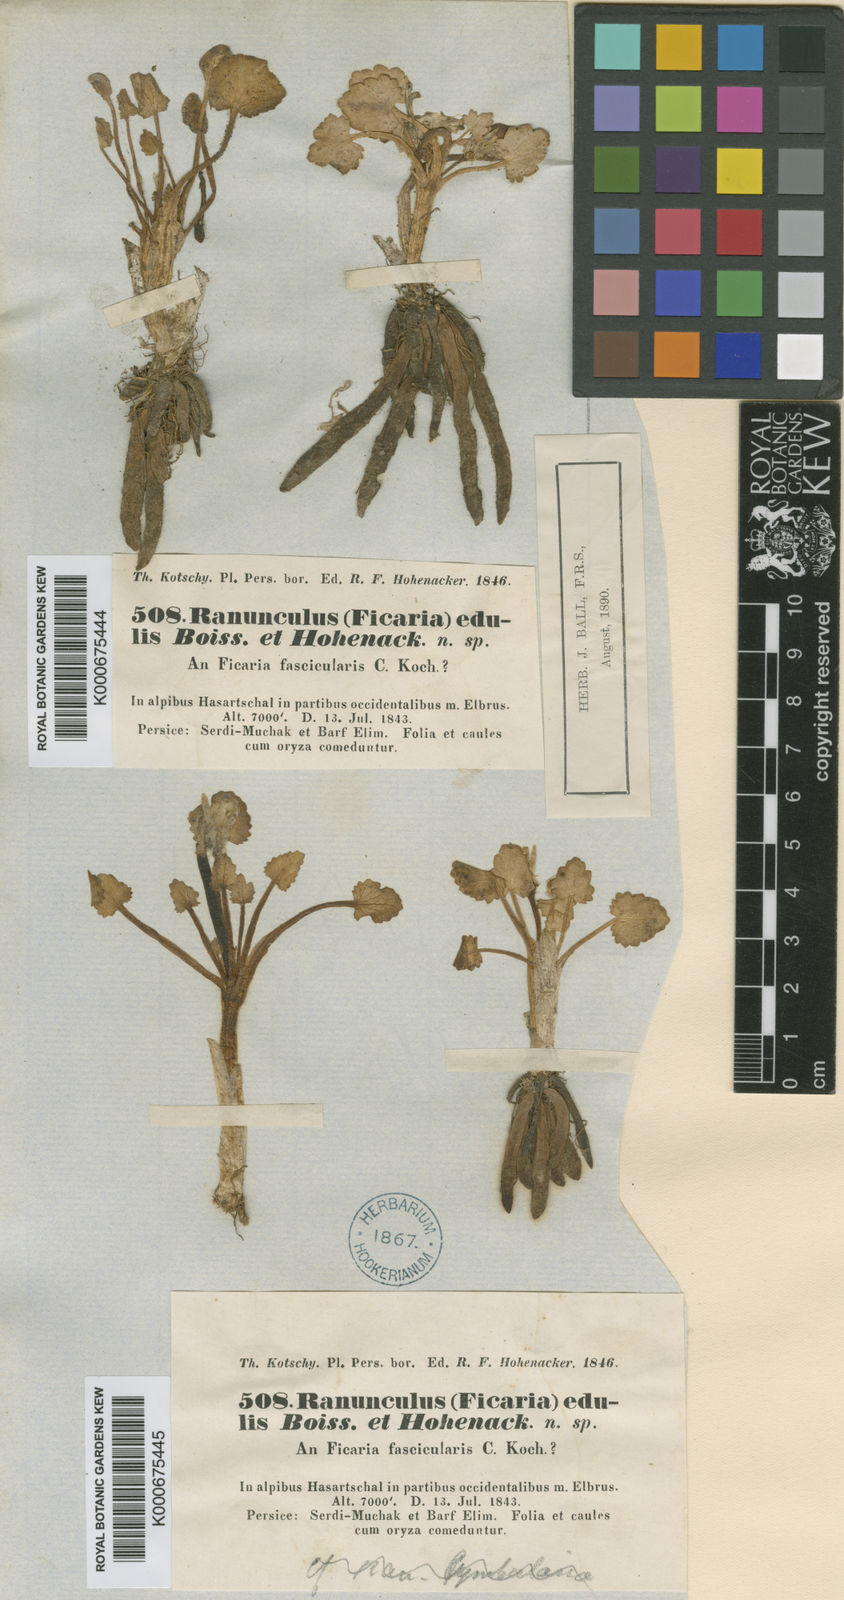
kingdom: Plantae
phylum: Tracheophyta
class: Magnoliopsida
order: Ranunculales
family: Ranunculaceae
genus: Ficaria
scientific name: Ficaria kochii
